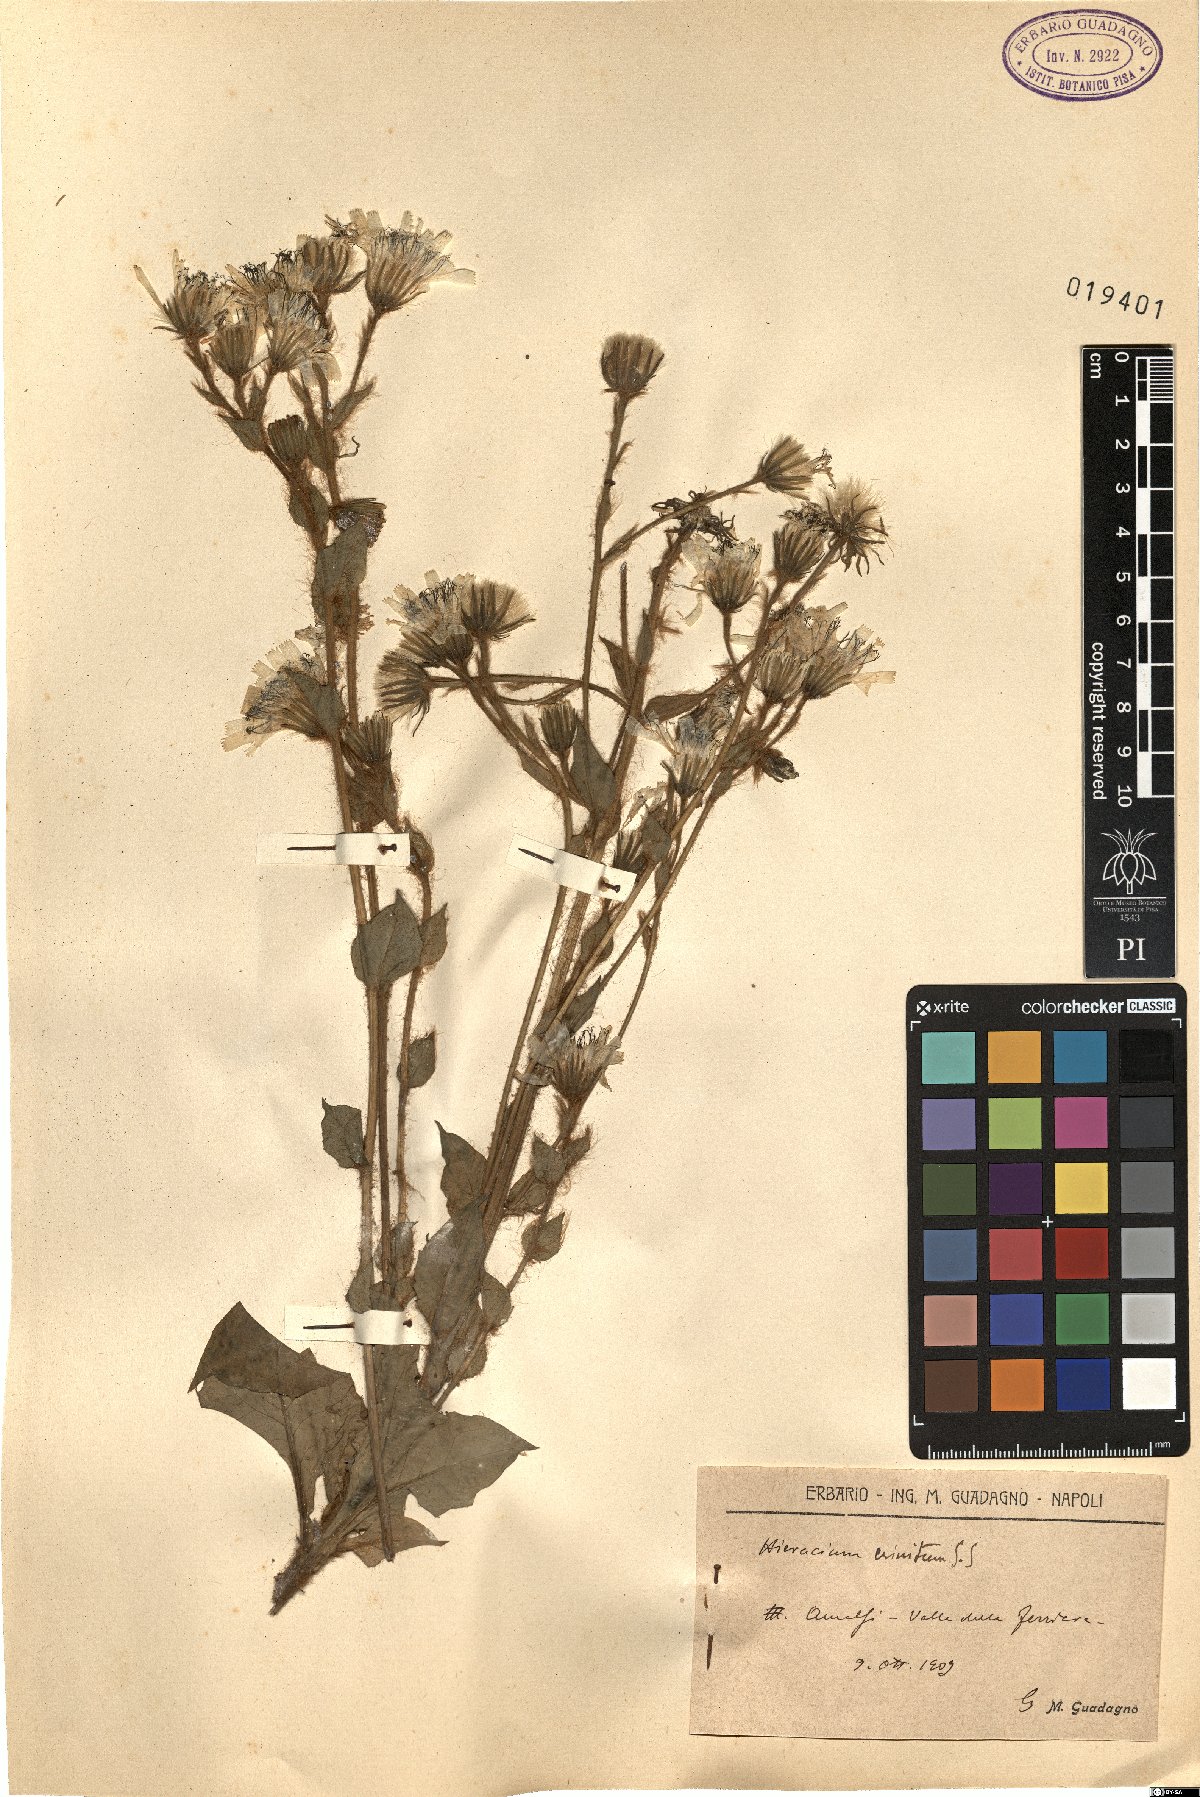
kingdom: Plantae
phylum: Tracheophyta
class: Magnoliopsida
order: Asterales
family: Asteraceae
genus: Hieracium
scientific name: Hieracium racemosum
